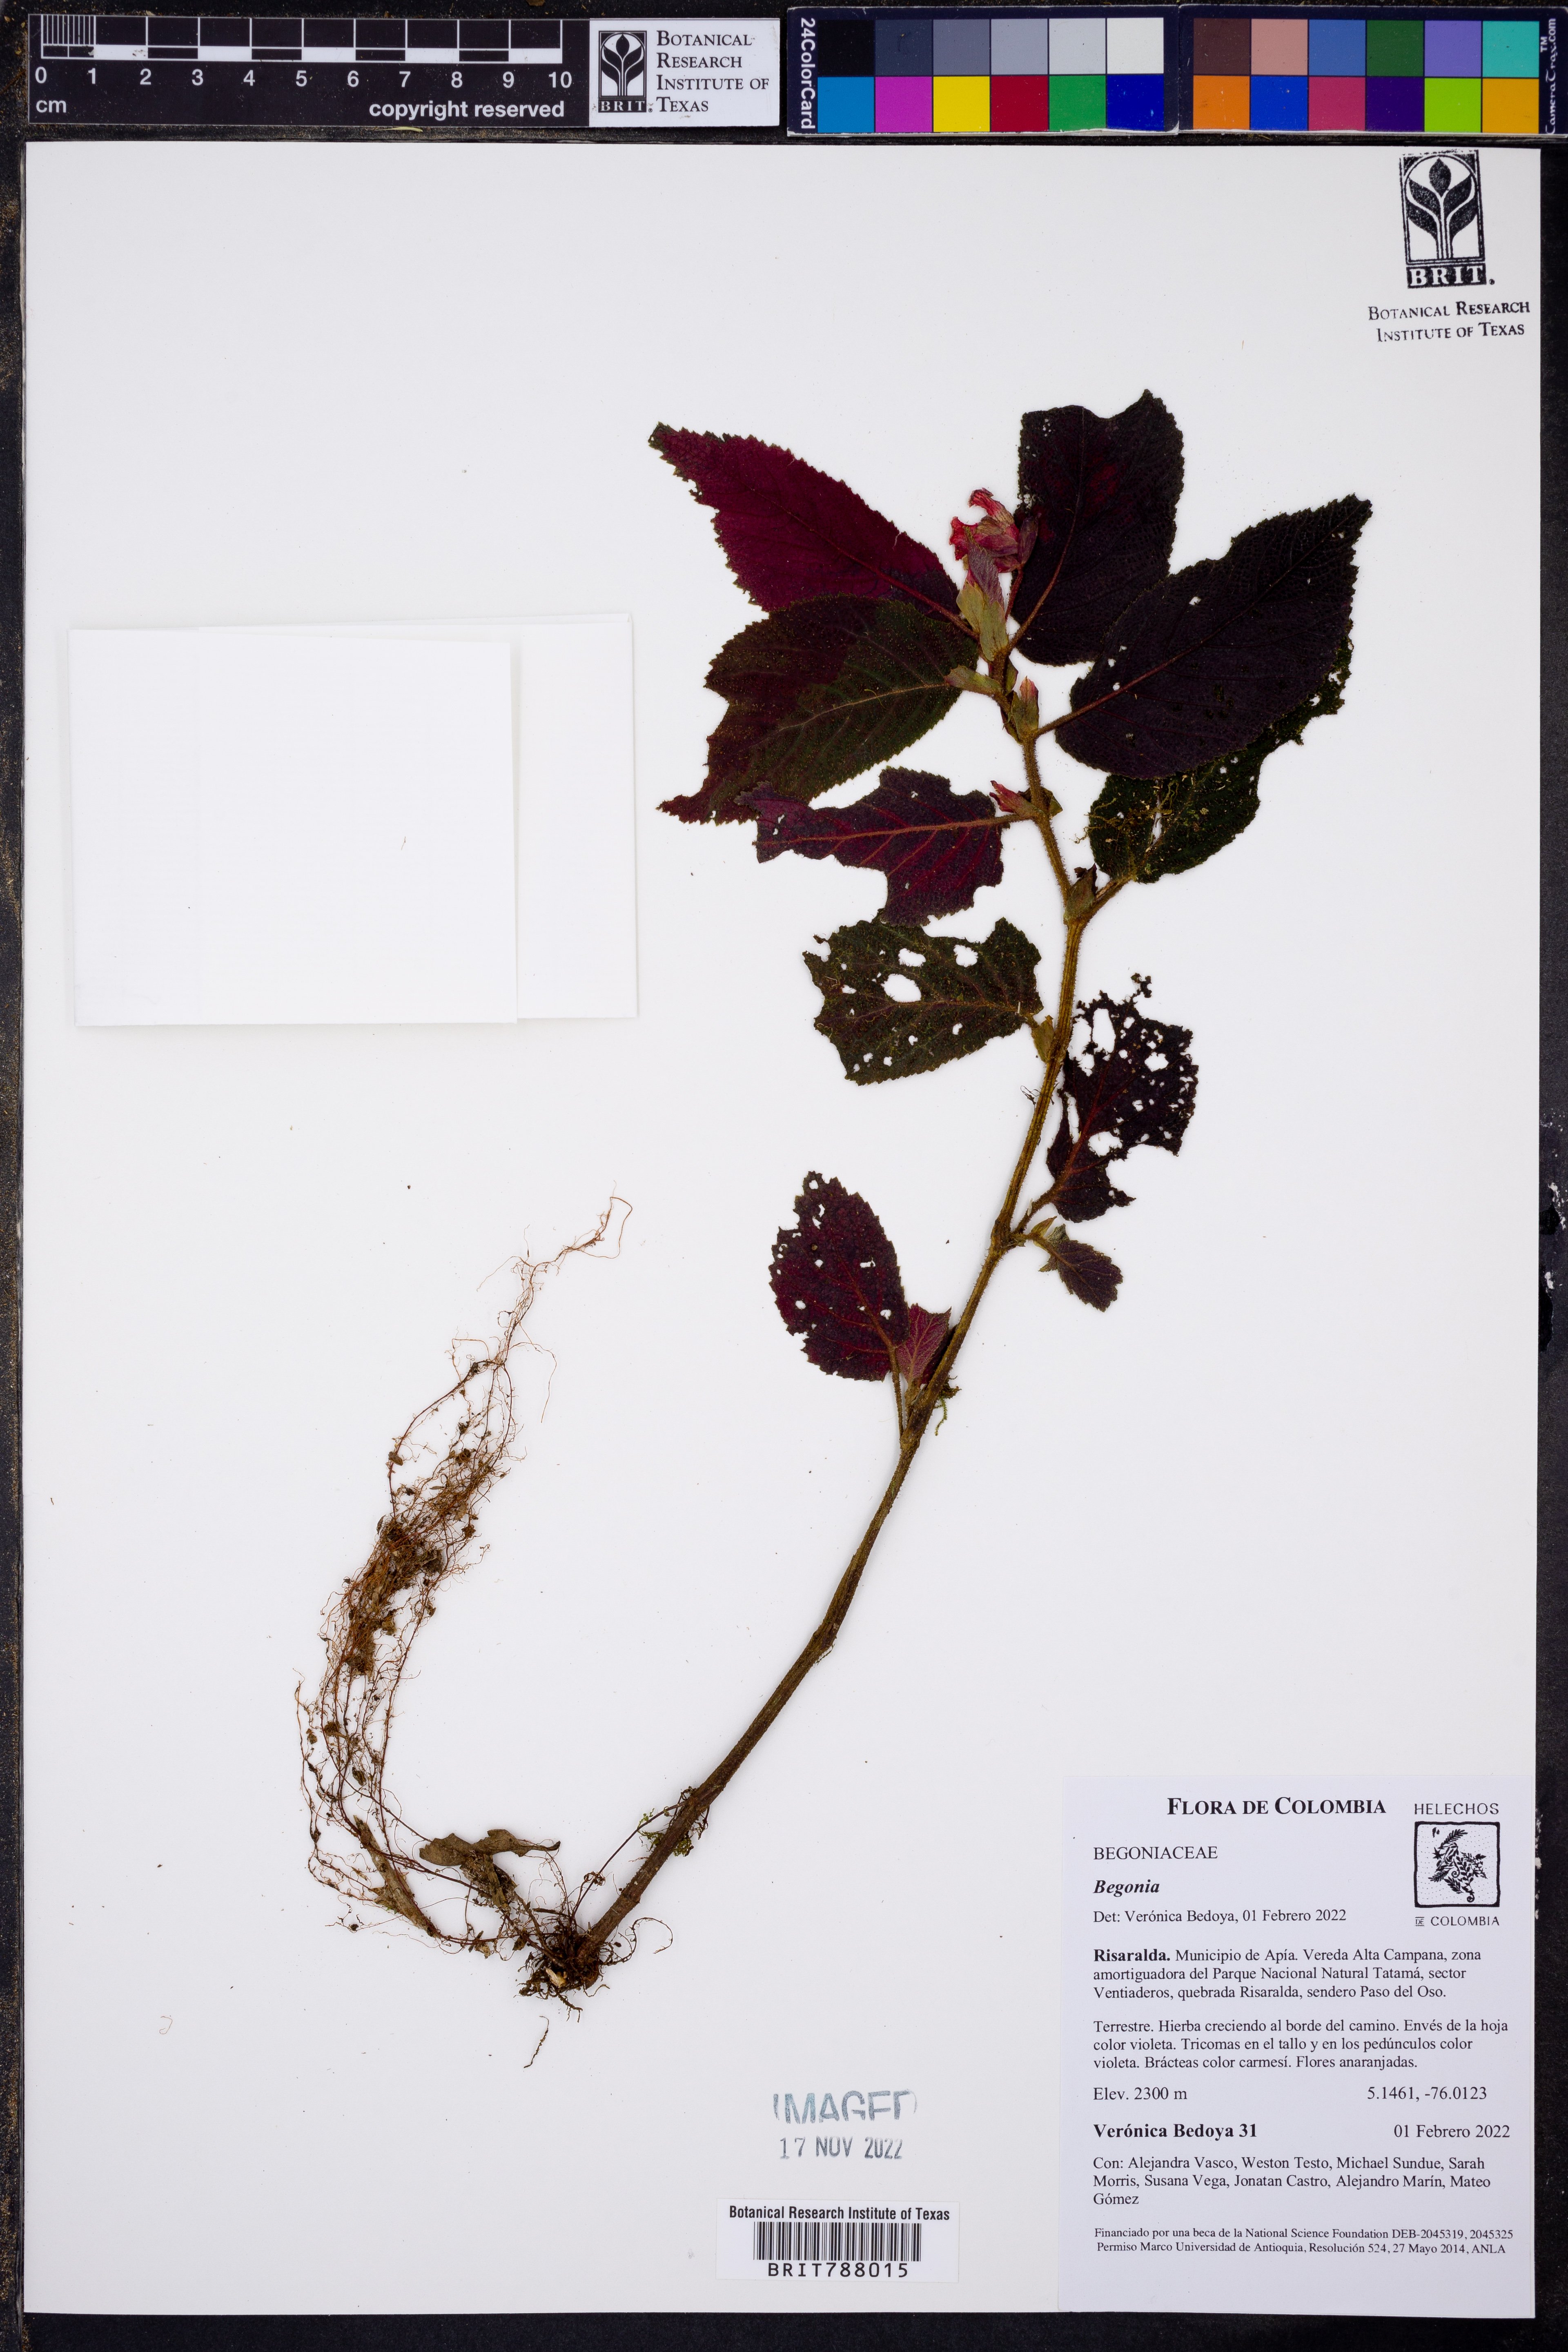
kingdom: Plantae
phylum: Tracheophyta
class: Magnoliopsida
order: Cucurbitales
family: Begoniaceae
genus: Begonia
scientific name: Begonia
